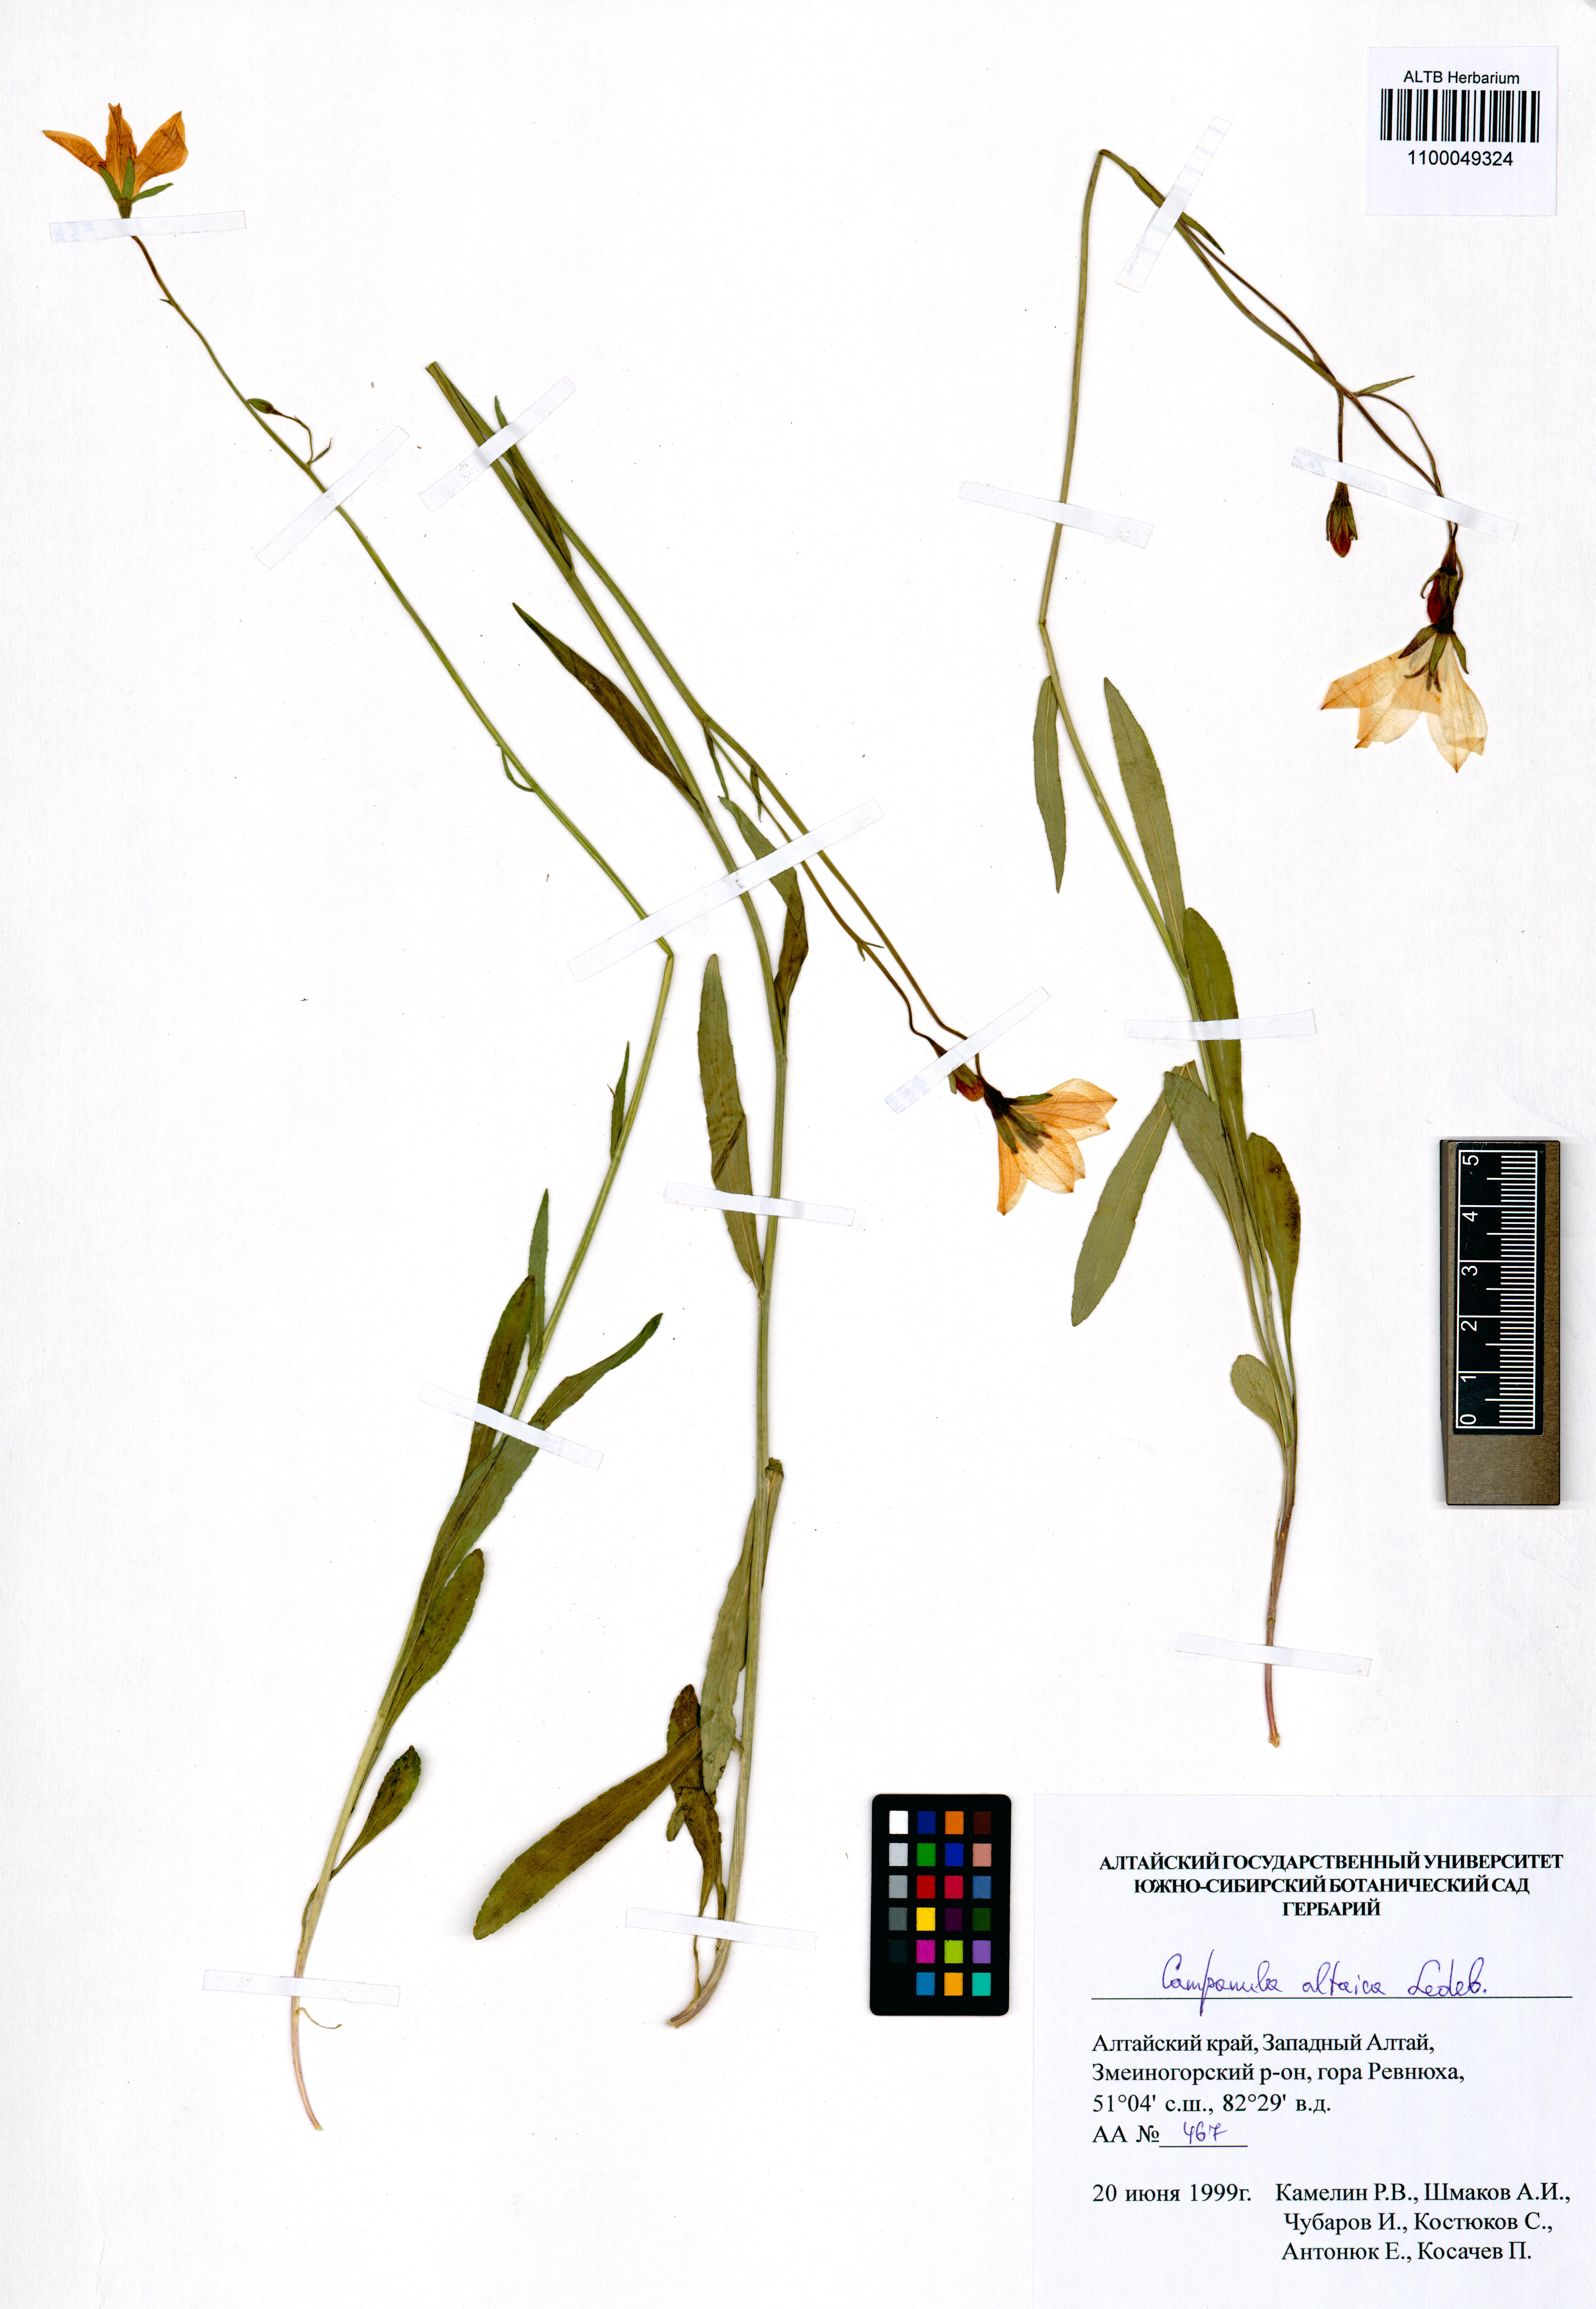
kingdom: Plantae
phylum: Tracheophyta
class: Magnoliopsida
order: Asterales
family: Campanulaceae
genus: Campanula
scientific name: Campanula stevenii
